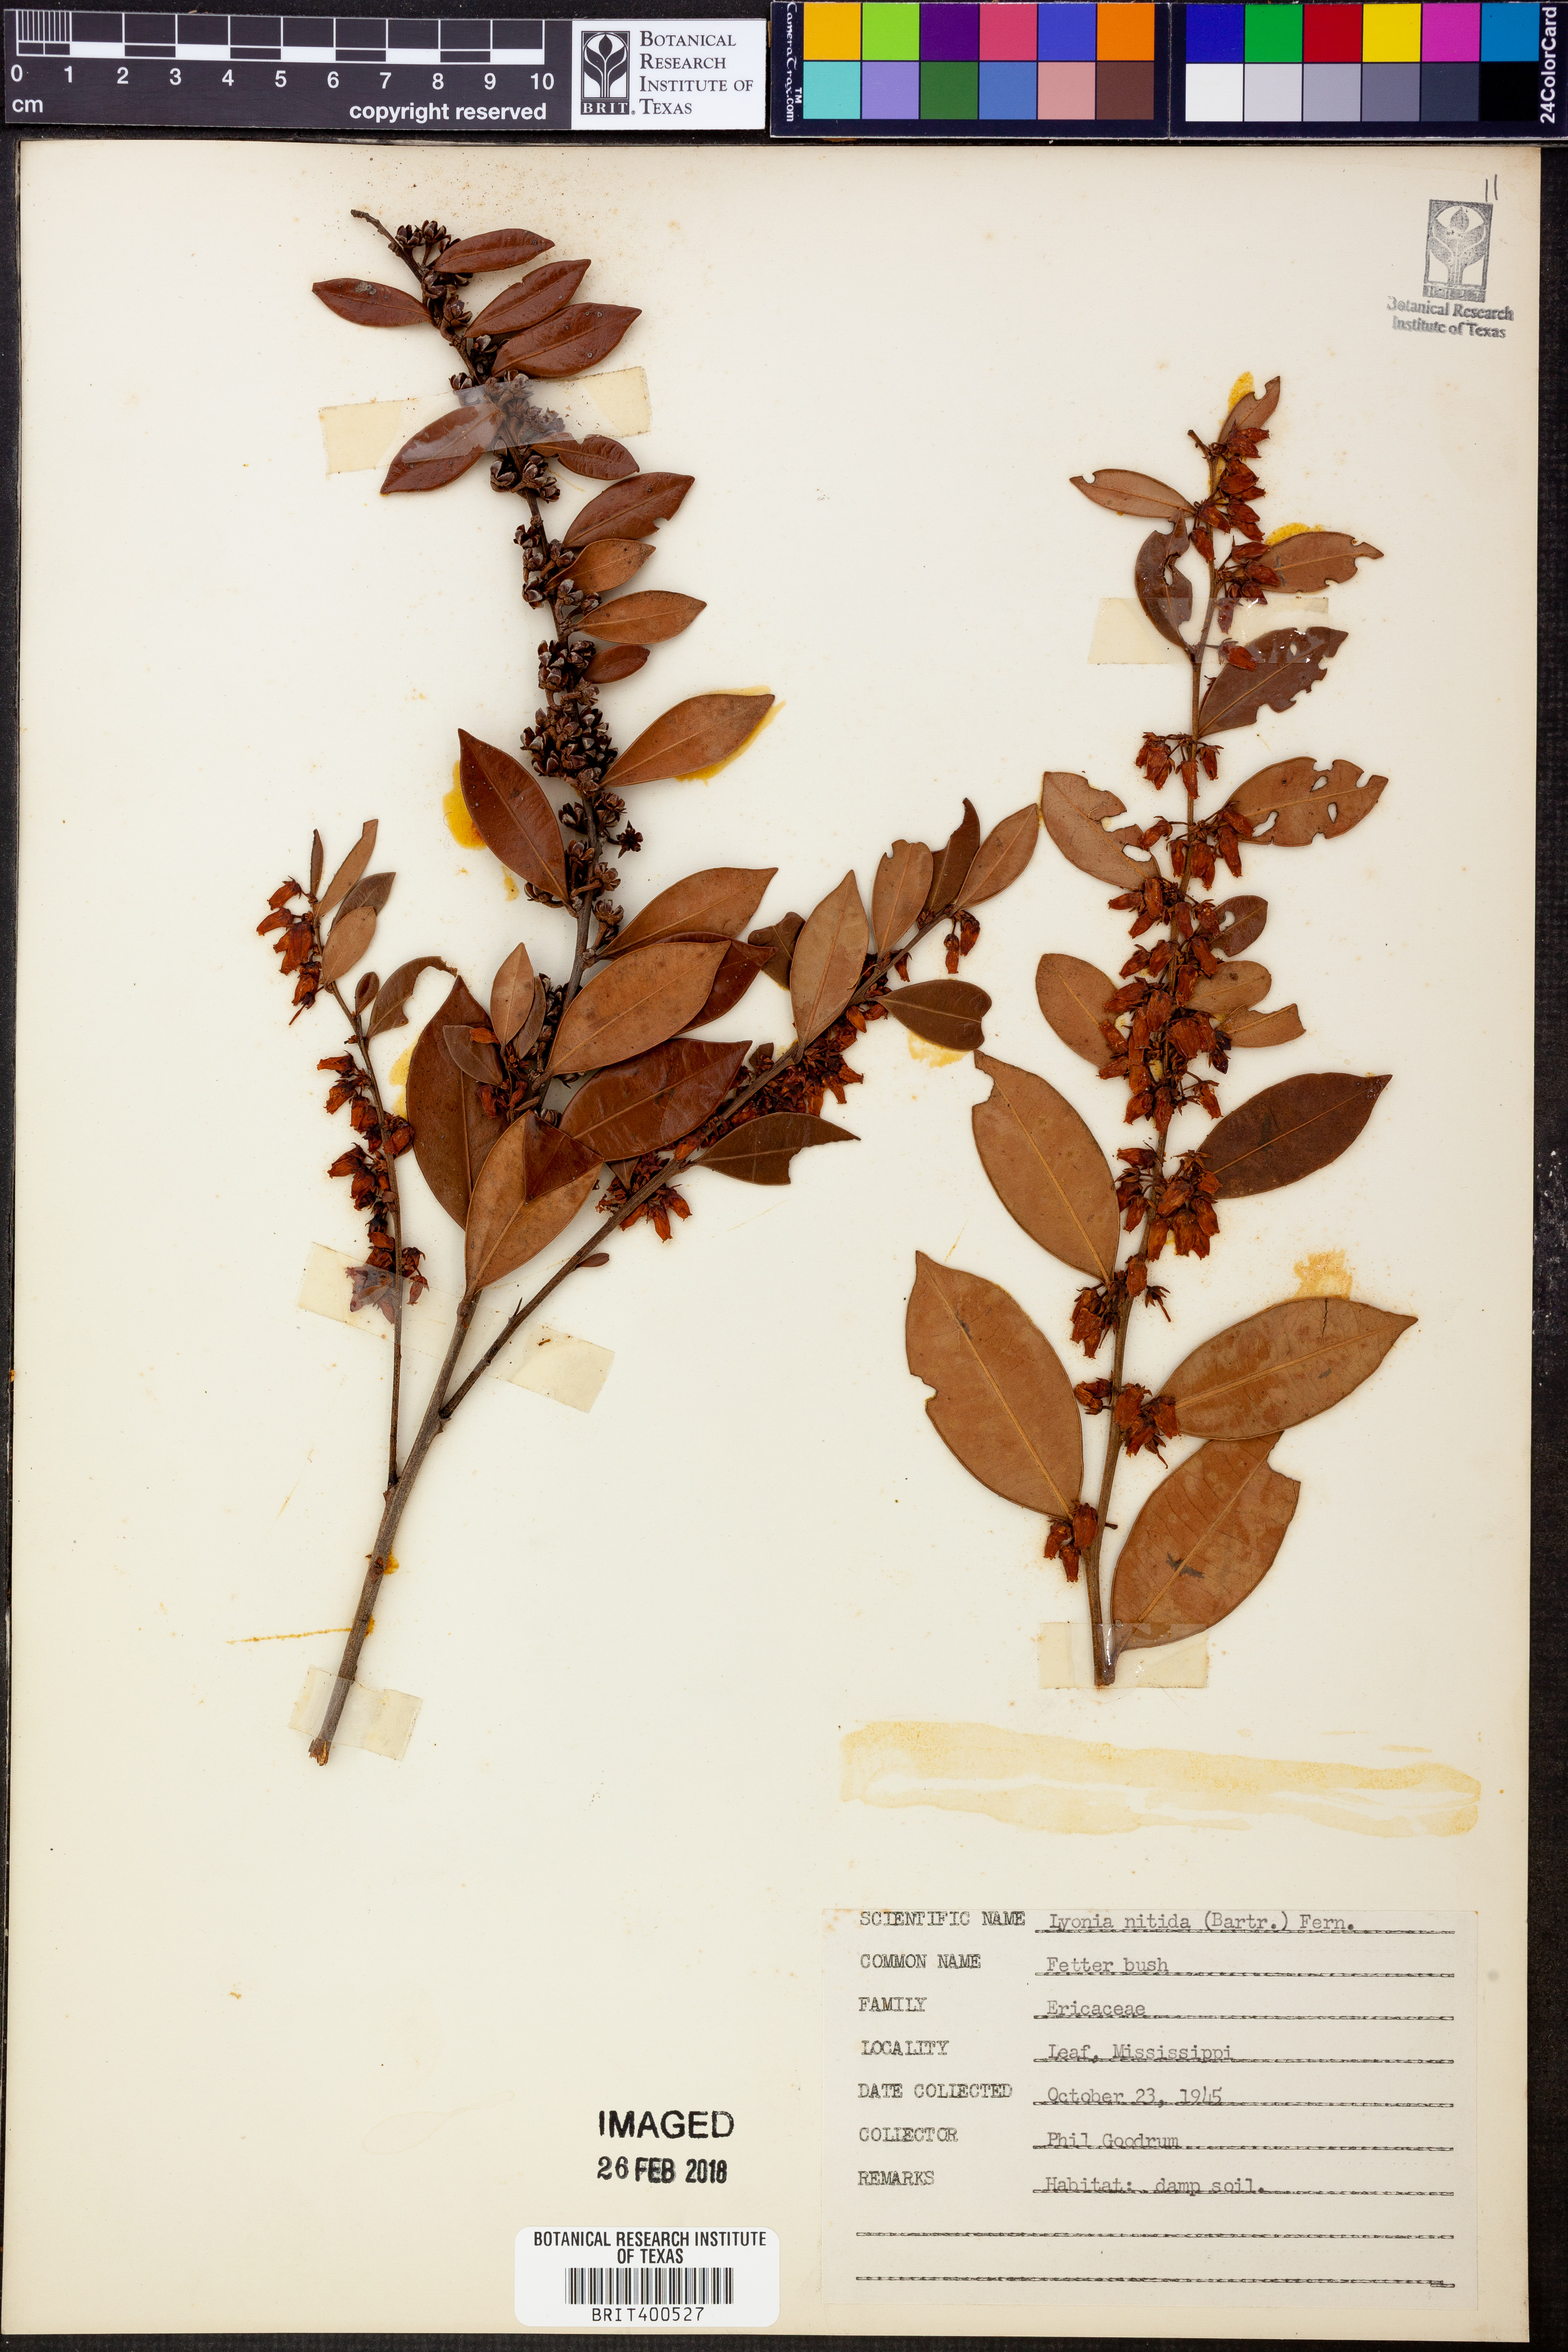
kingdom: Plantae
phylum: Tracheophyta
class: Magnoliopsida
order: Ericales
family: Ericaceae
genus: Lyonia
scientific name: Lyonia lucida
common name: Fetterbush
